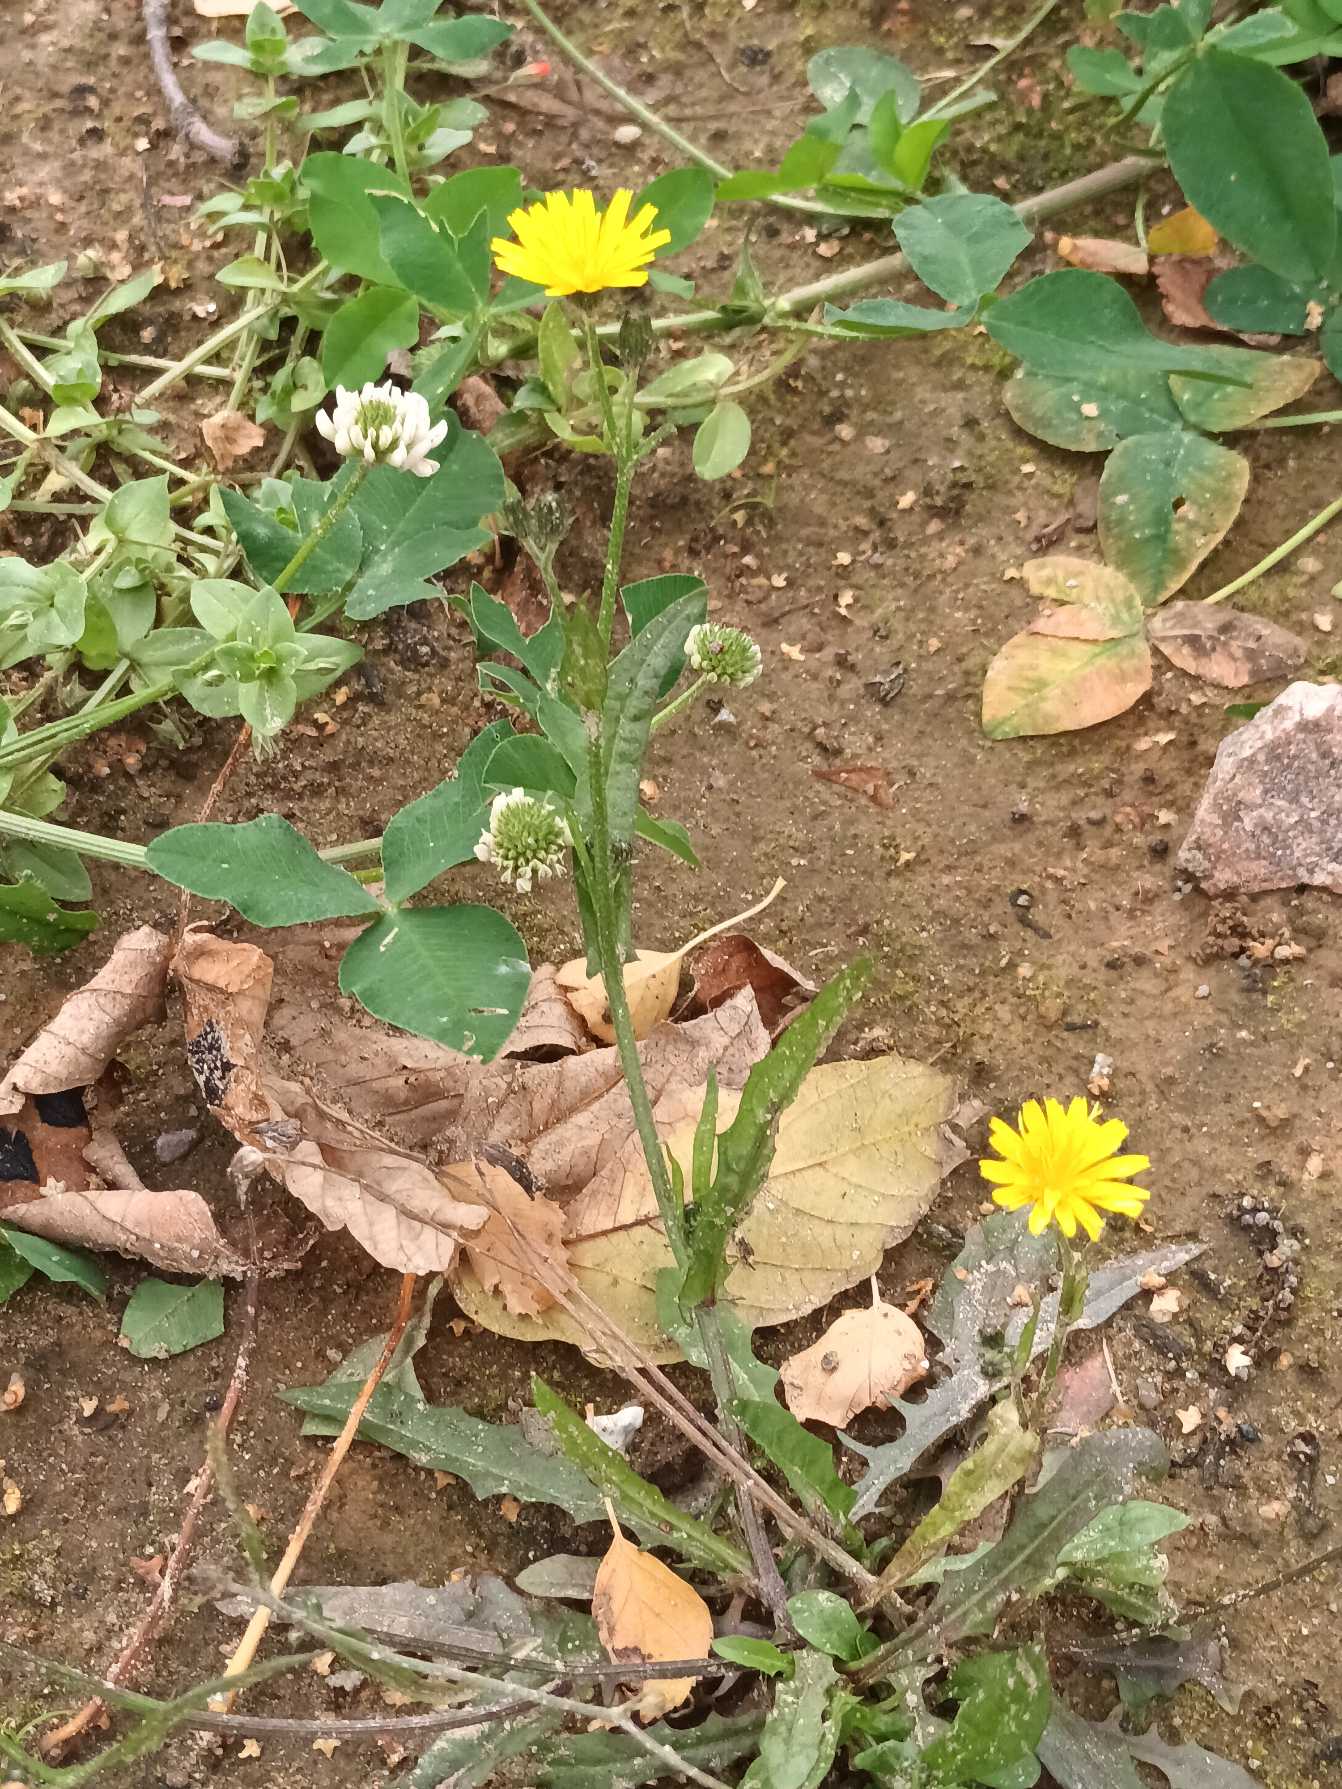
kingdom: Plantae
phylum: Tracheophyta
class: Magnoliopsida
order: Asterales
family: Asteraceae
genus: Crepis
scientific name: Crepis capillaris
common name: Grøn høgeskæg
